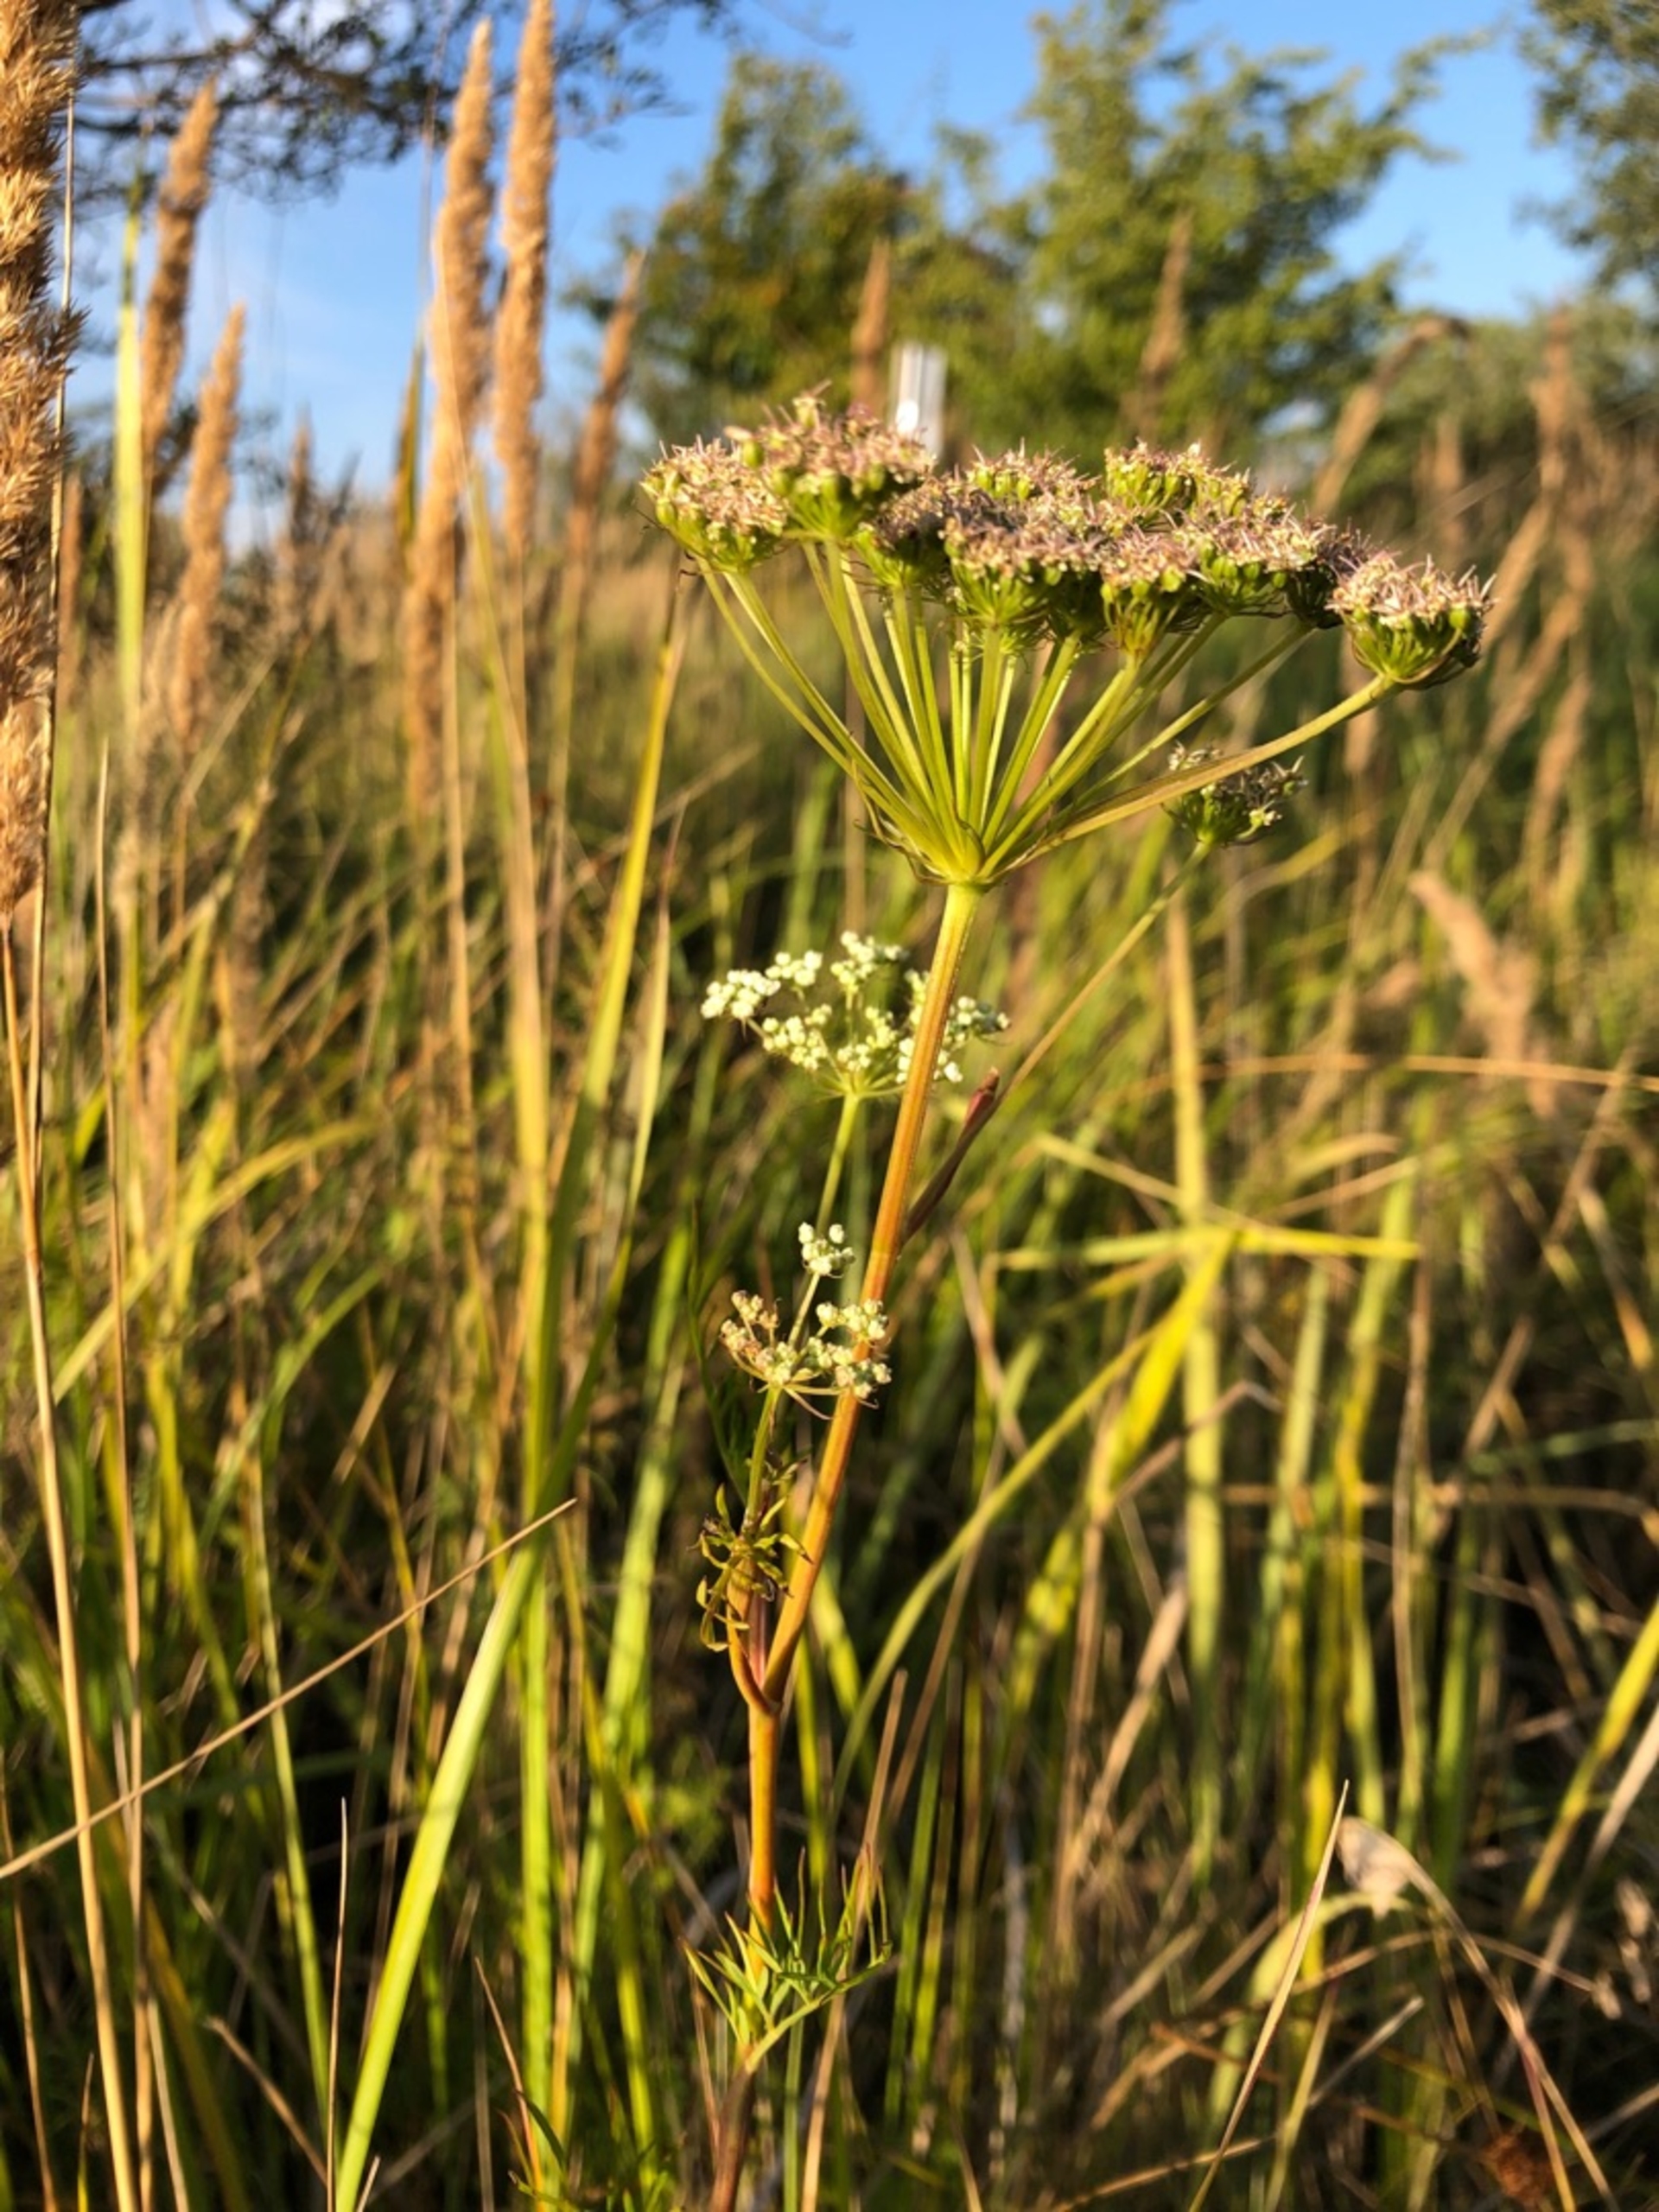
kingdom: Plantae
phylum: Tracheophyta
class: Magnoliopsida
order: Apiales
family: Apiaceae
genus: Kadenia
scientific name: Kadenia dubia
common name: Brændeskærm
